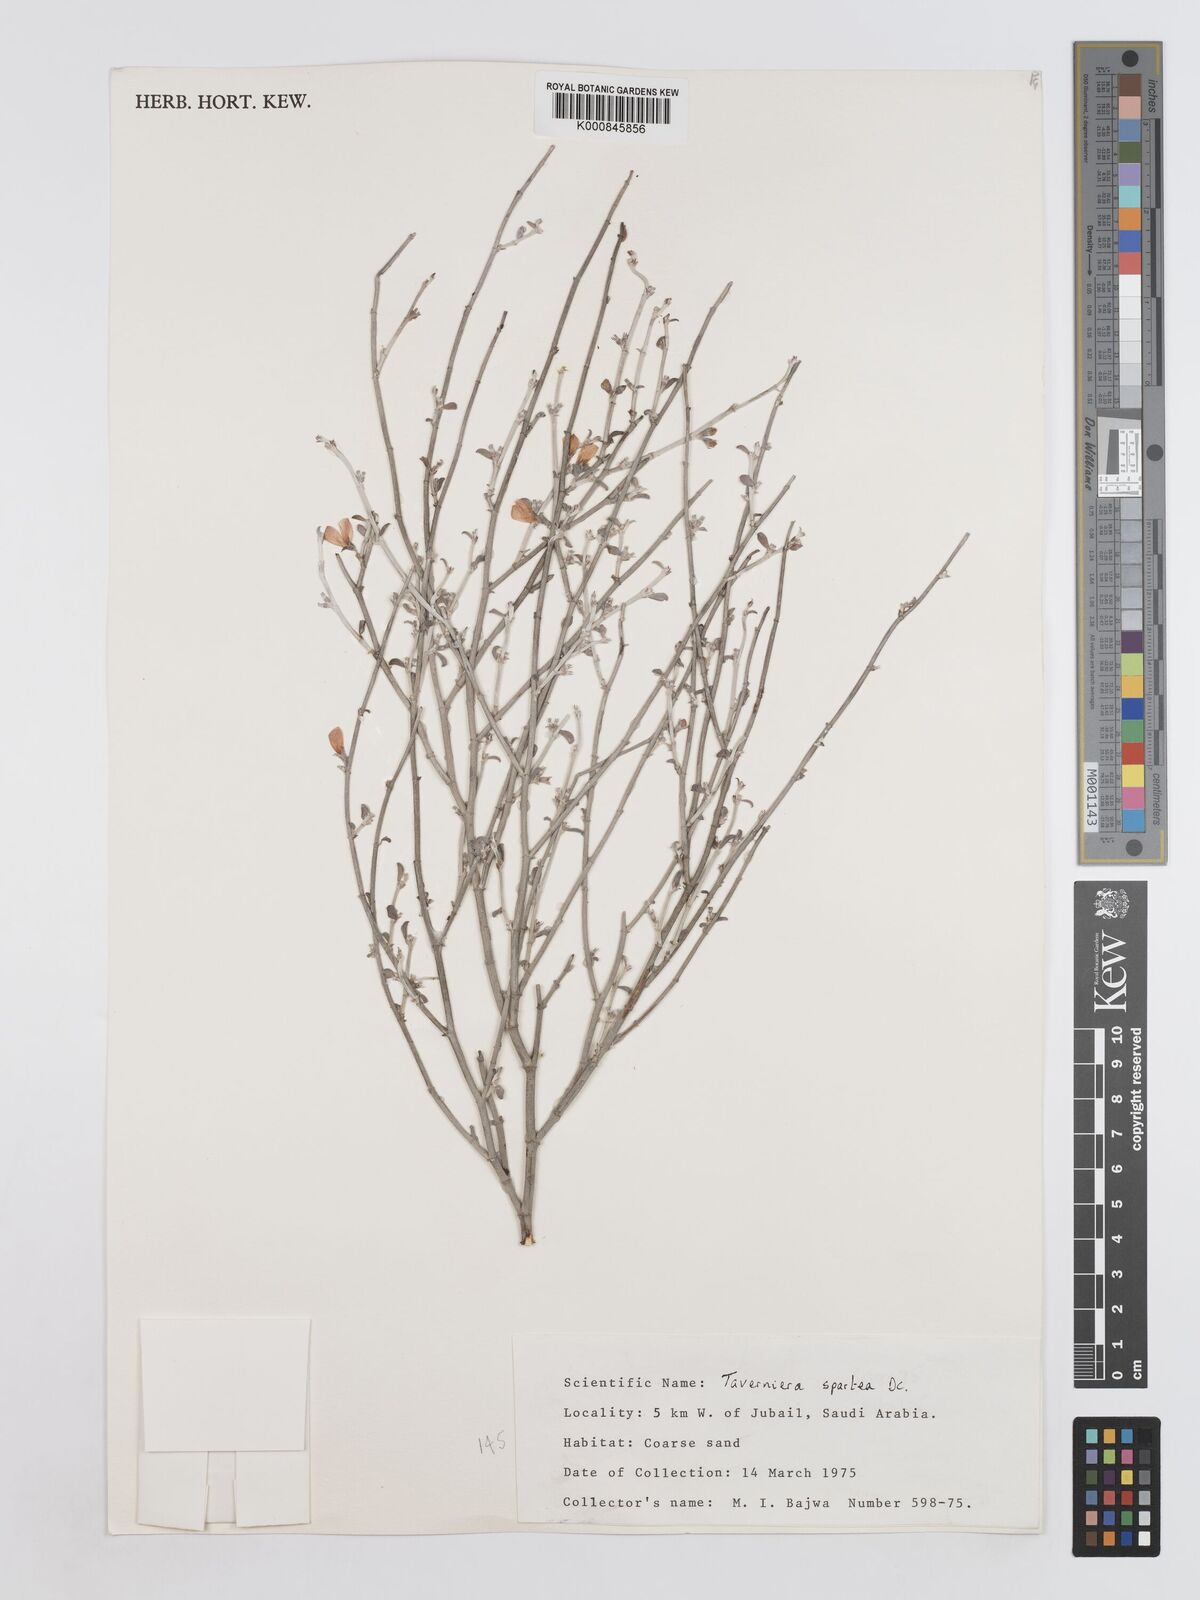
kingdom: Plantae
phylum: Tracheophyta
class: Magnoliopsida
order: Fabales
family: Fabaceae
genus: Taverniera
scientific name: Taverniera spartea
